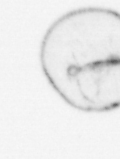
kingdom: Chromista
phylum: Myzozoa
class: Dinophyceae
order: Noctilucales
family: Noctilucaceae
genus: Noctiluca
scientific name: Noctiluca scintillans
